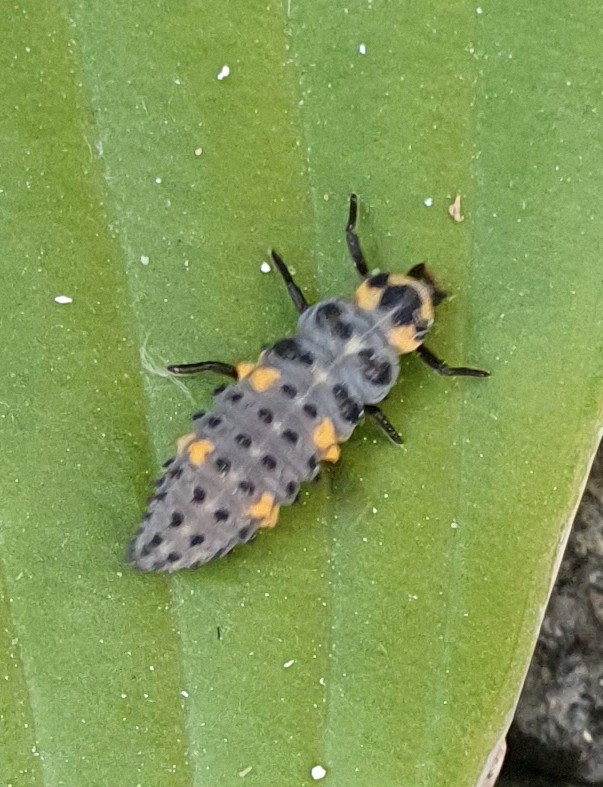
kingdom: Animalia
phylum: Arthropoda
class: Insecta
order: Coleoptera
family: Coccinellidae
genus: Coccinella
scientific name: Coccinella septempunctata
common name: Syvplettet mariehøne
